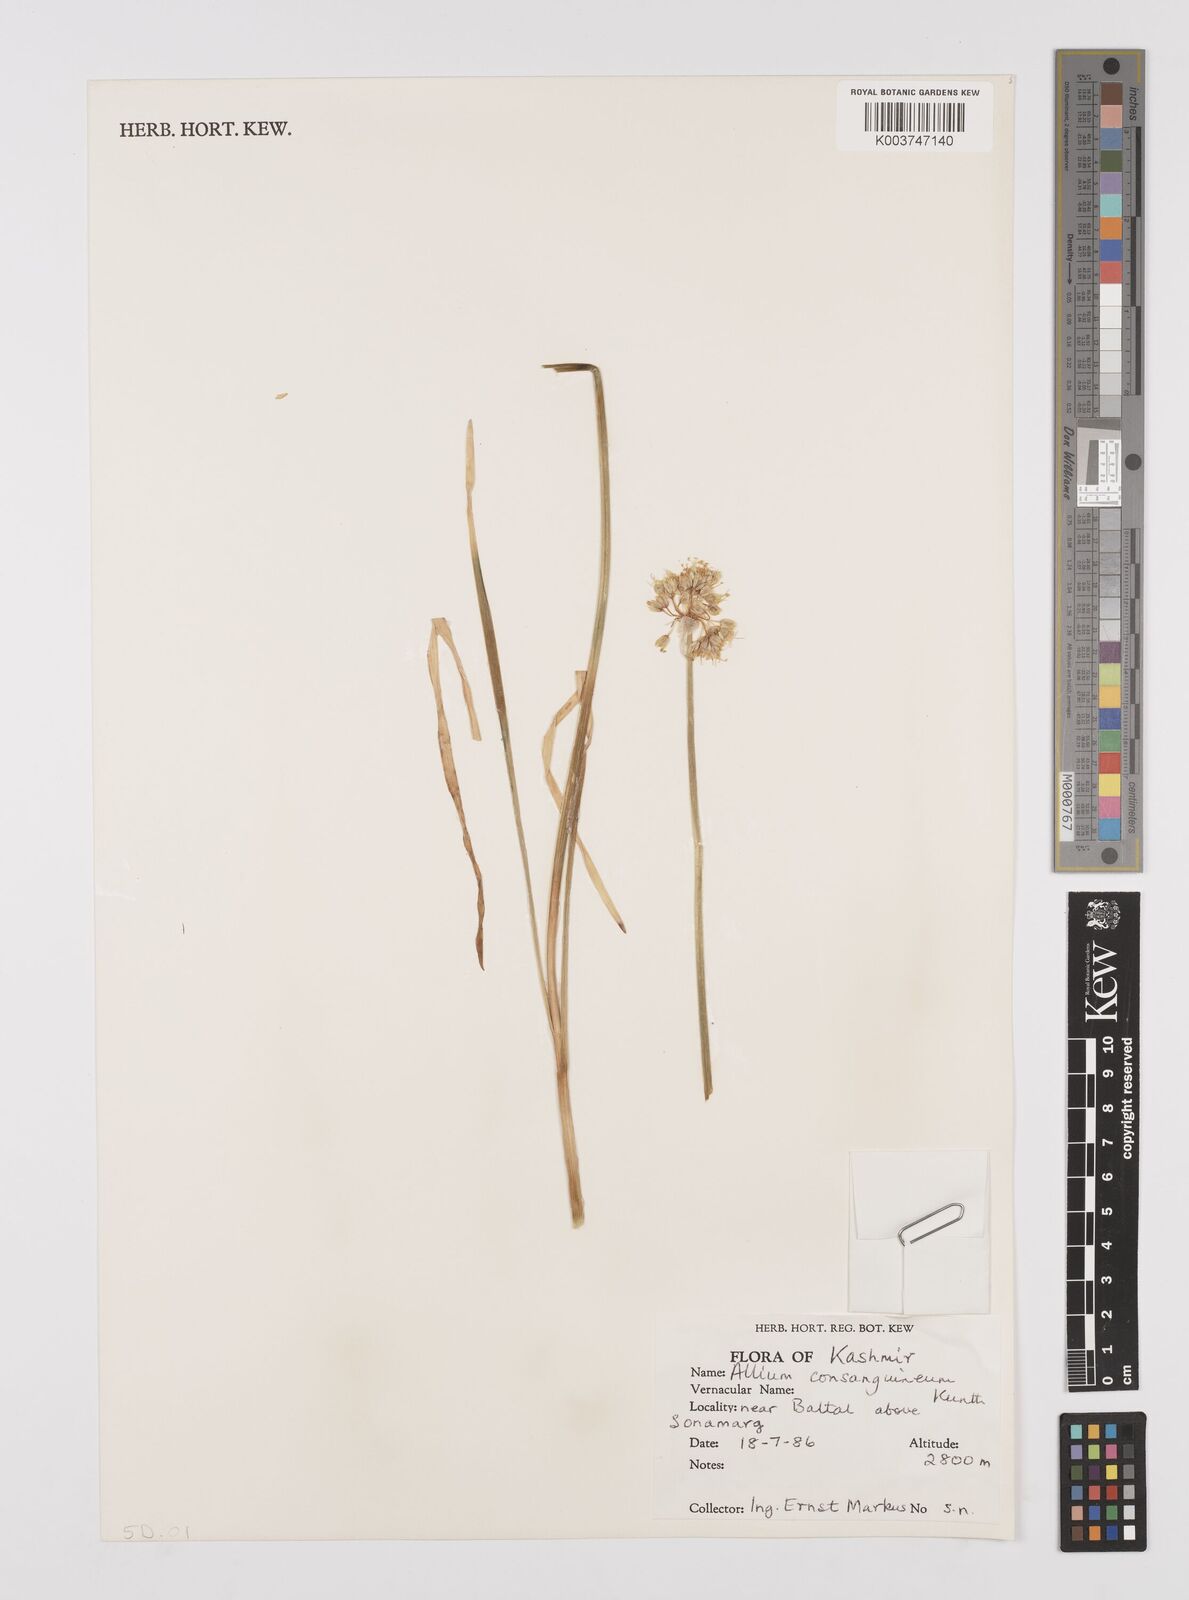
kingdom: Plantae
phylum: Tracheophyta
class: Liliopsida
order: Asparagales
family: Amaryllidaceae
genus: Allium
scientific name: Allium consanguineum
